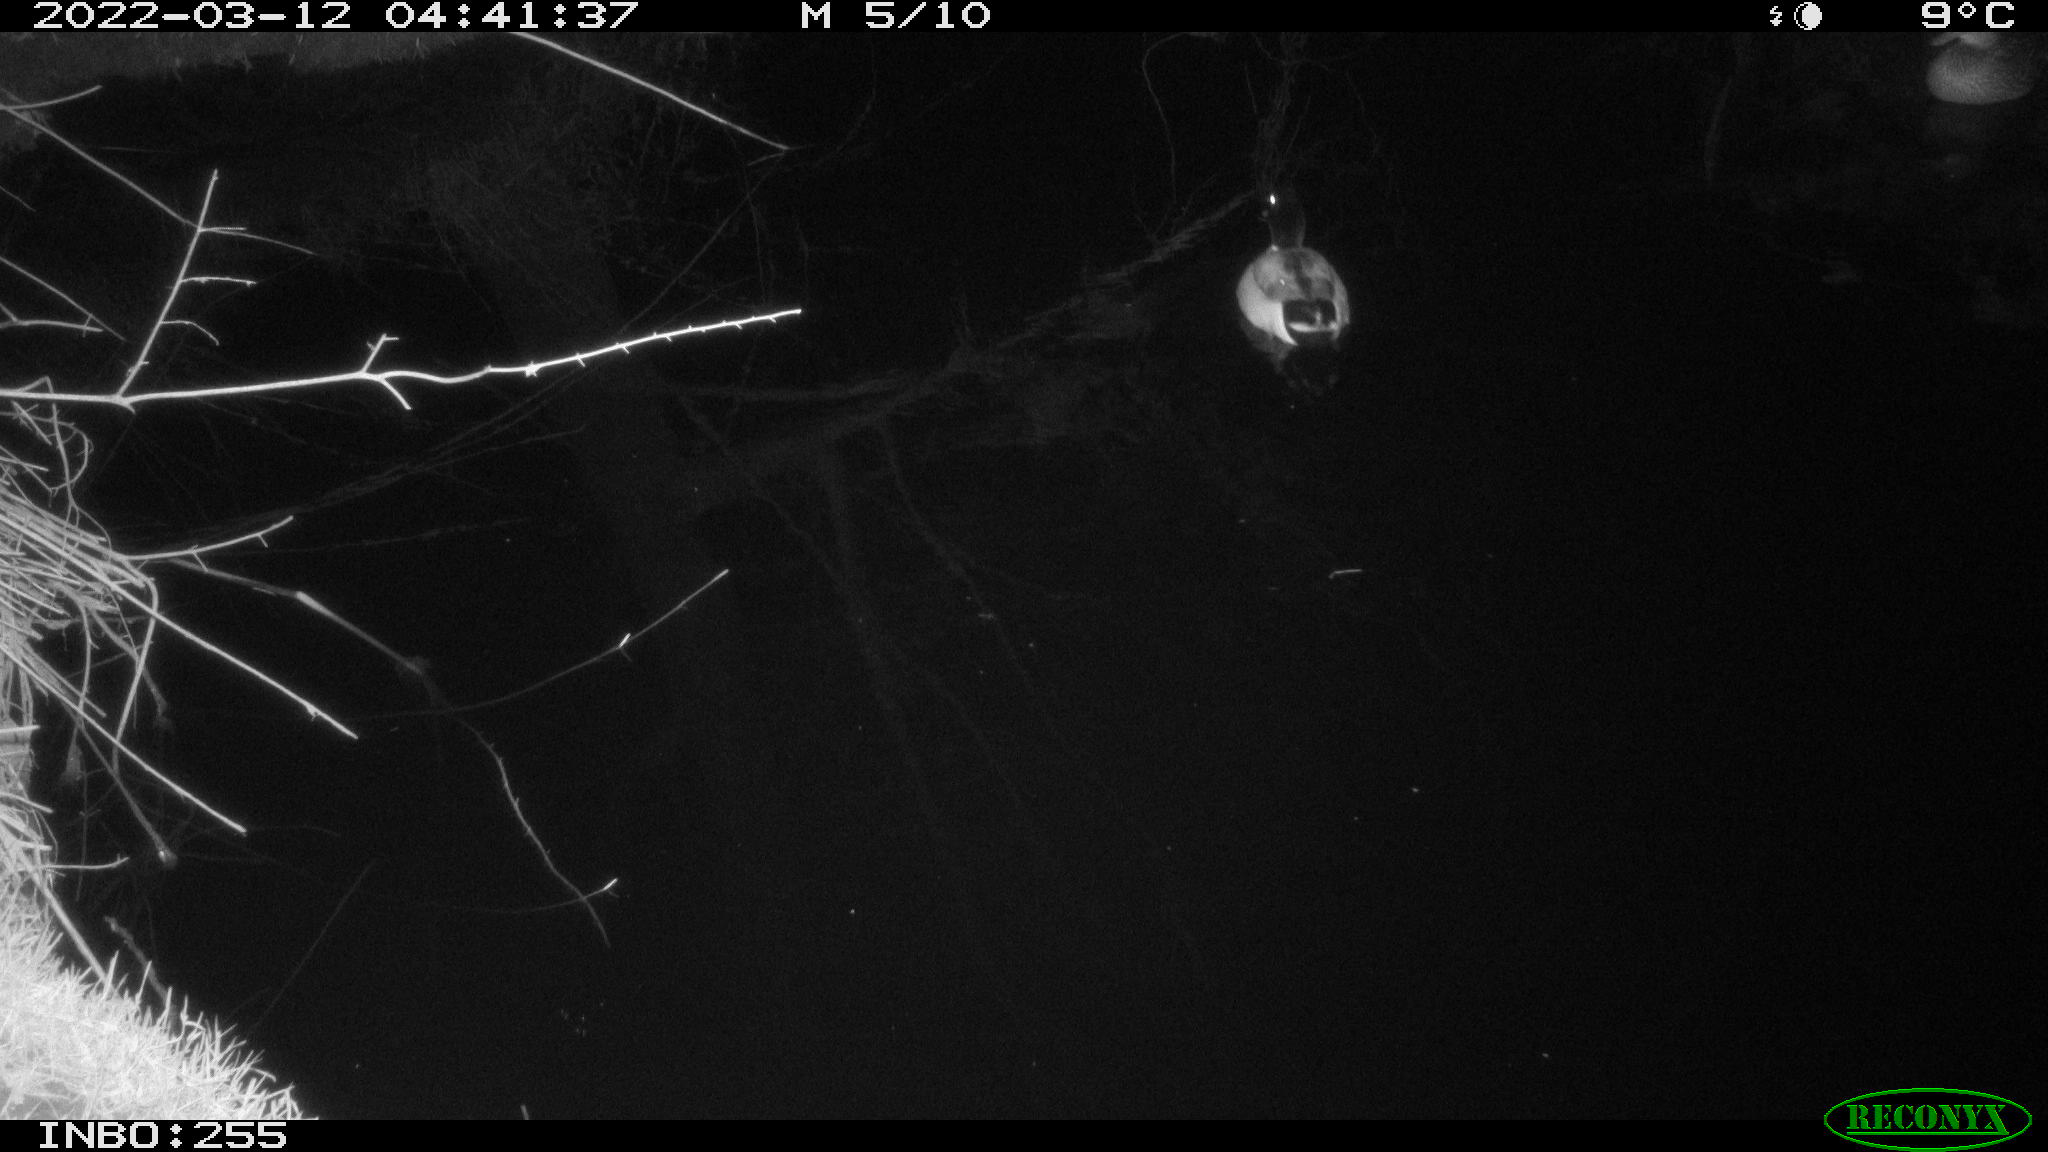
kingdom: Animalia
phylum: Chordata
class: Aves
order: Anseriformes
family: Anatidae
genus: Anas
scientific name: Anas platyrhynchos
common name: Mallard
